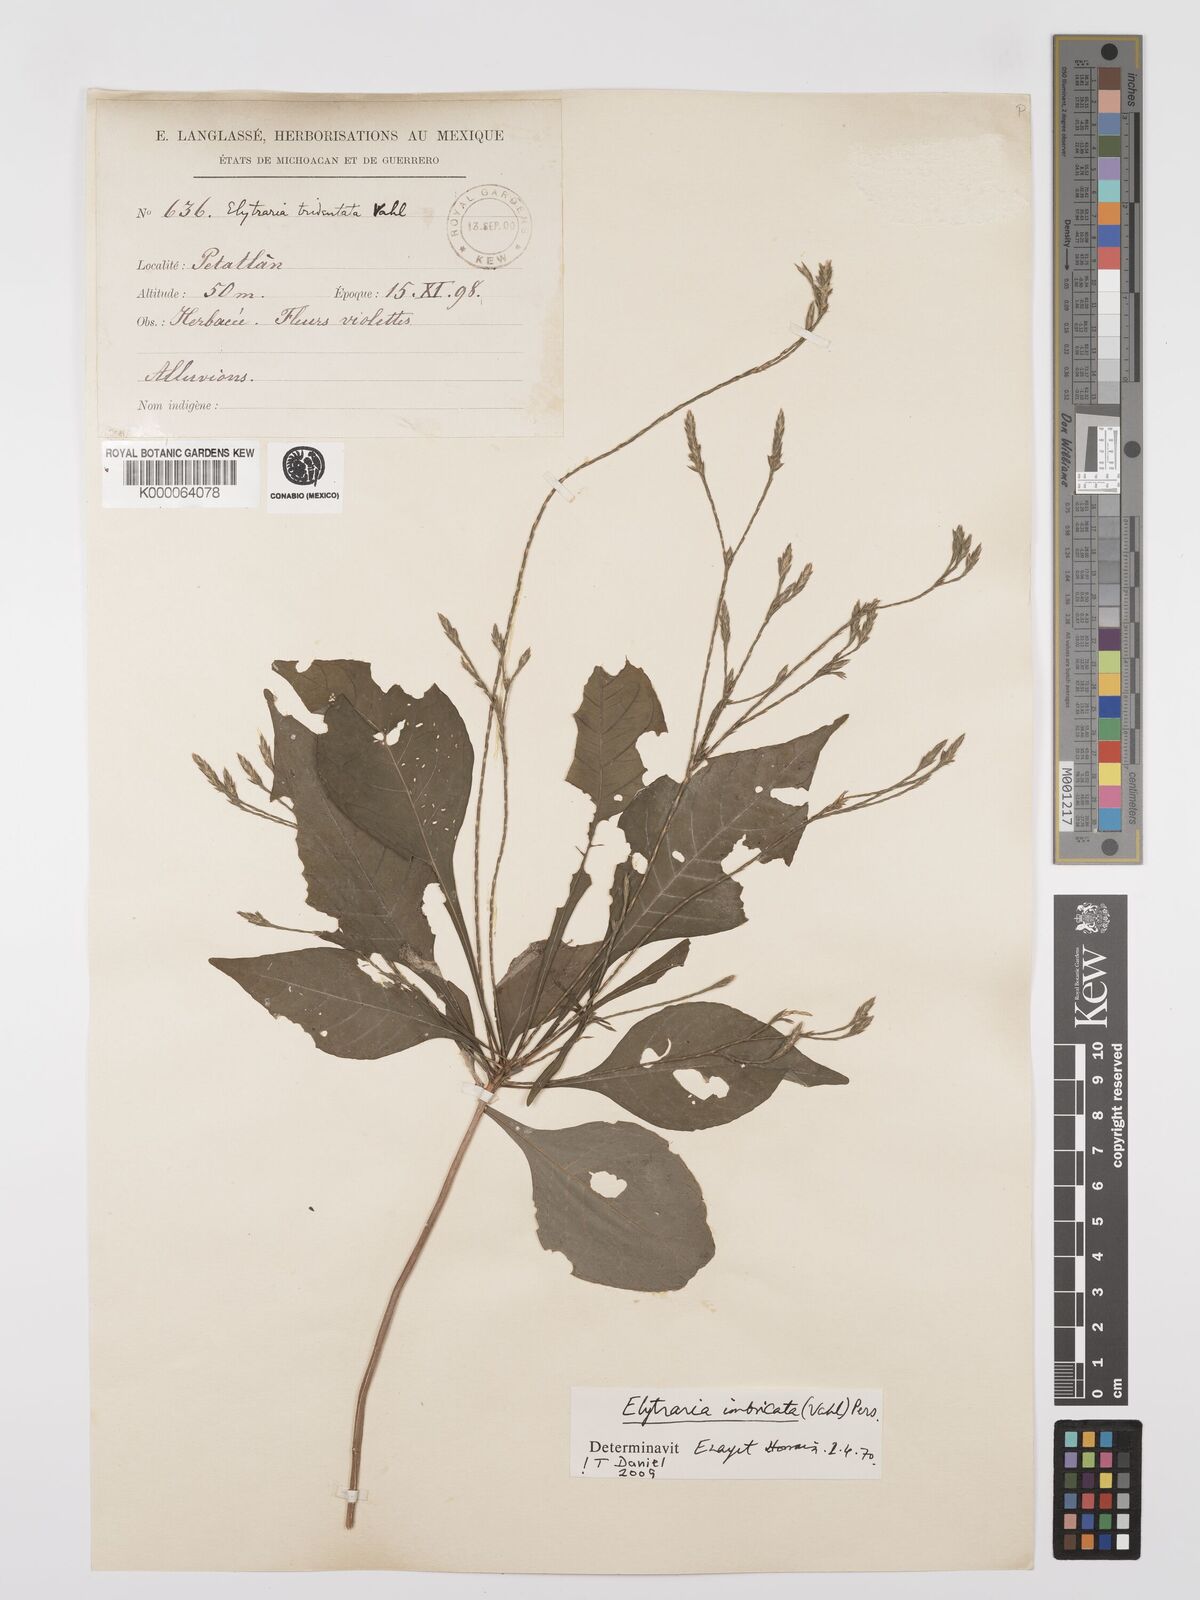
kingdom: Plantae
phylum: Tracheophyta
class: Magnoliopsida
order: Lamiales
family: Acanthaceae
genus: Elytraria
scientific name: Elytraria imbricata
